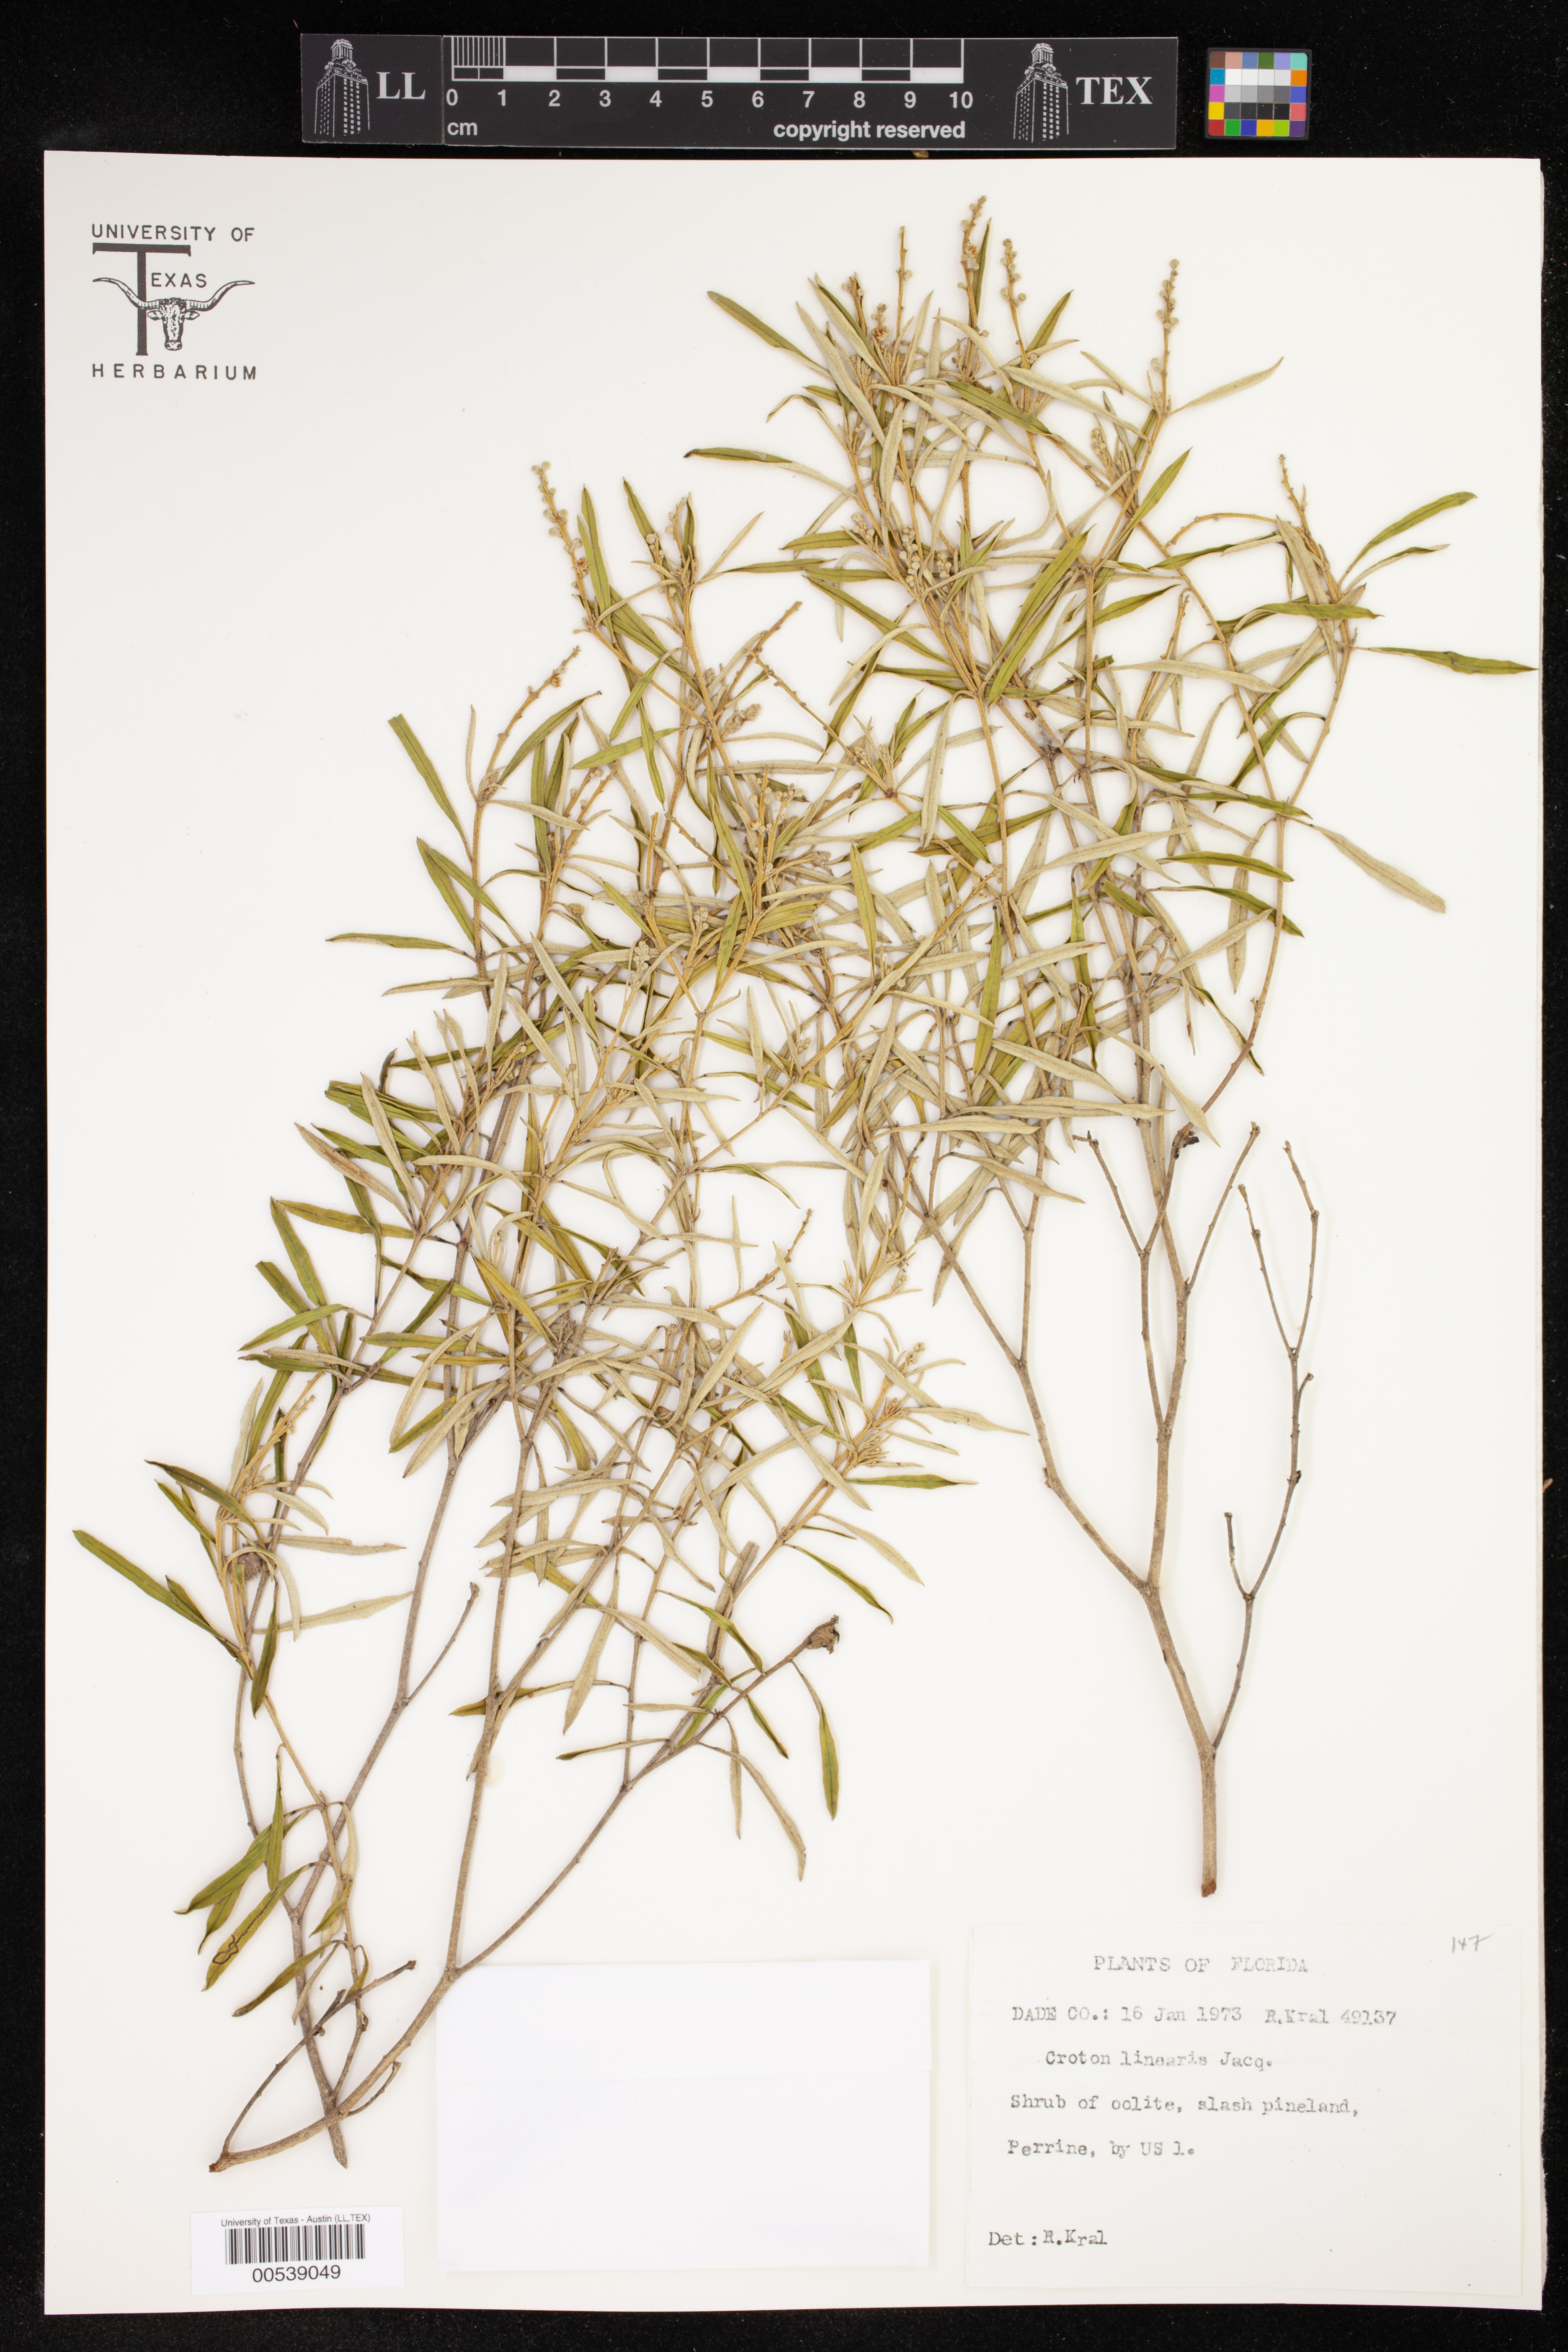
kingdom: Plantae
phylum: Tracheophyta
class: Magnoliopsida
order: Malpighiales
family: Euphorbiaceae
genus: Croton
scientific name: Croton linearis
